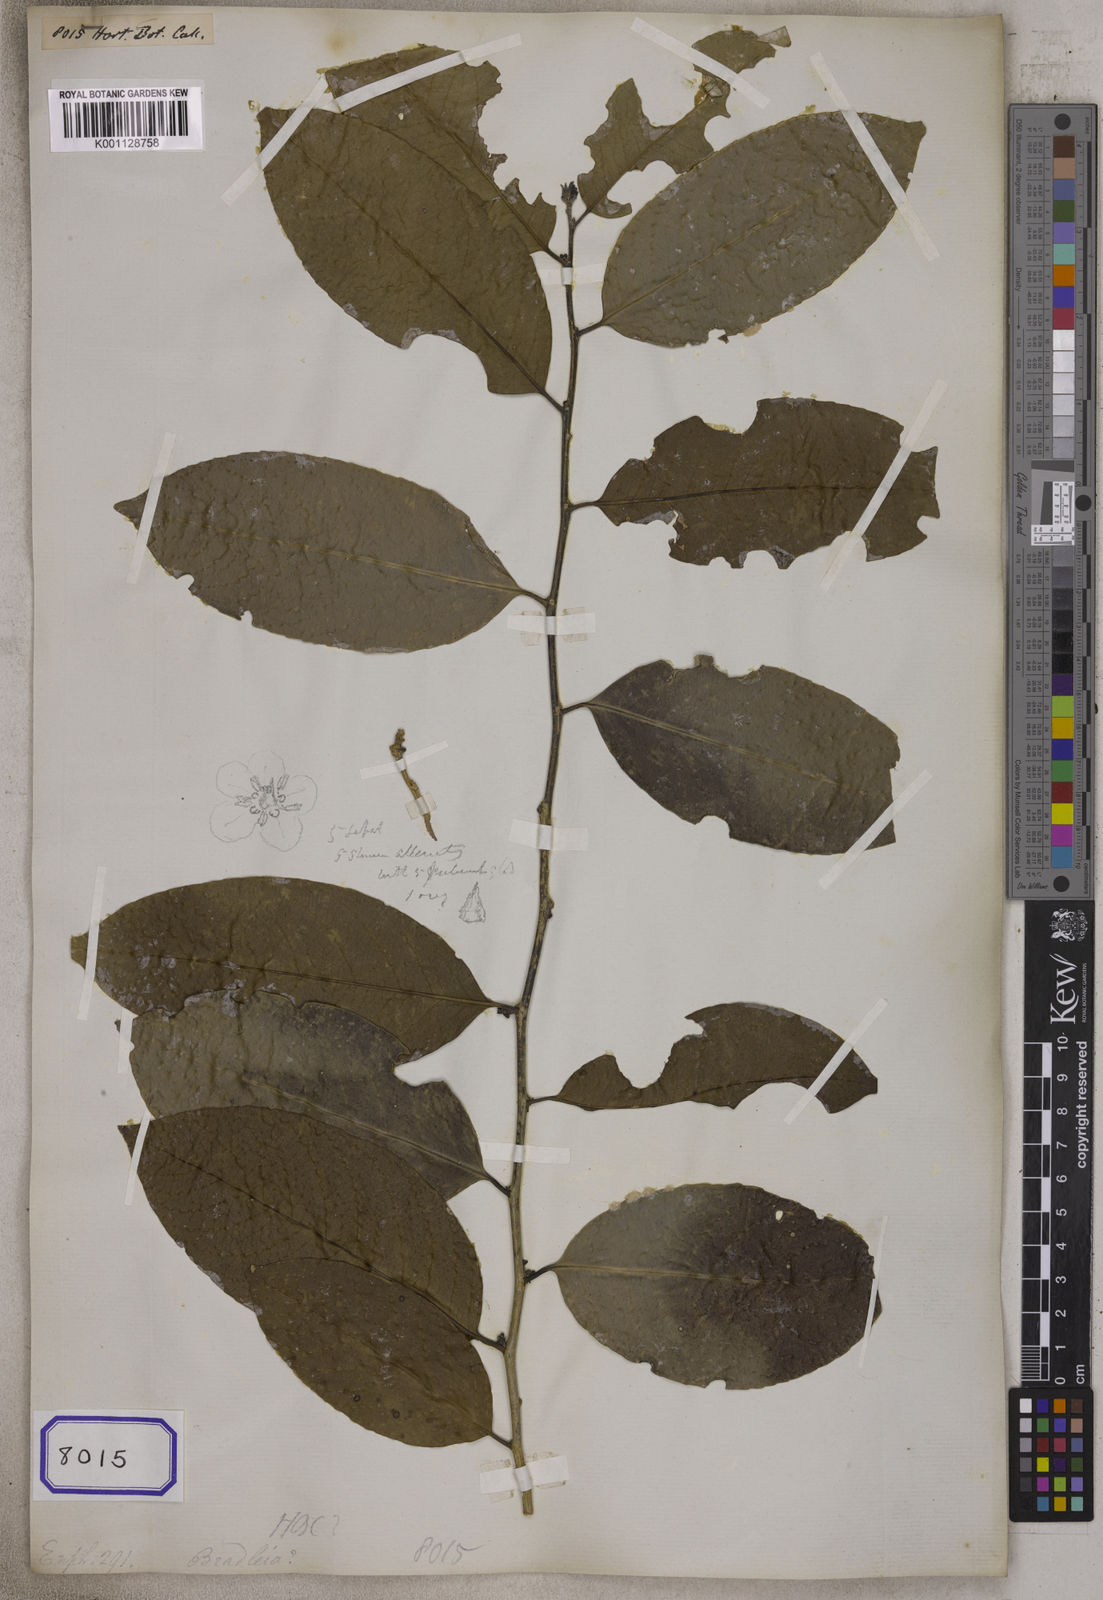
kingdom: Plantae
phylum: Tracheophyta
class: Magnoliopsida
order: Malpighiales
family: Euphorbiaceae
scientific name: Euphorbiaceae
